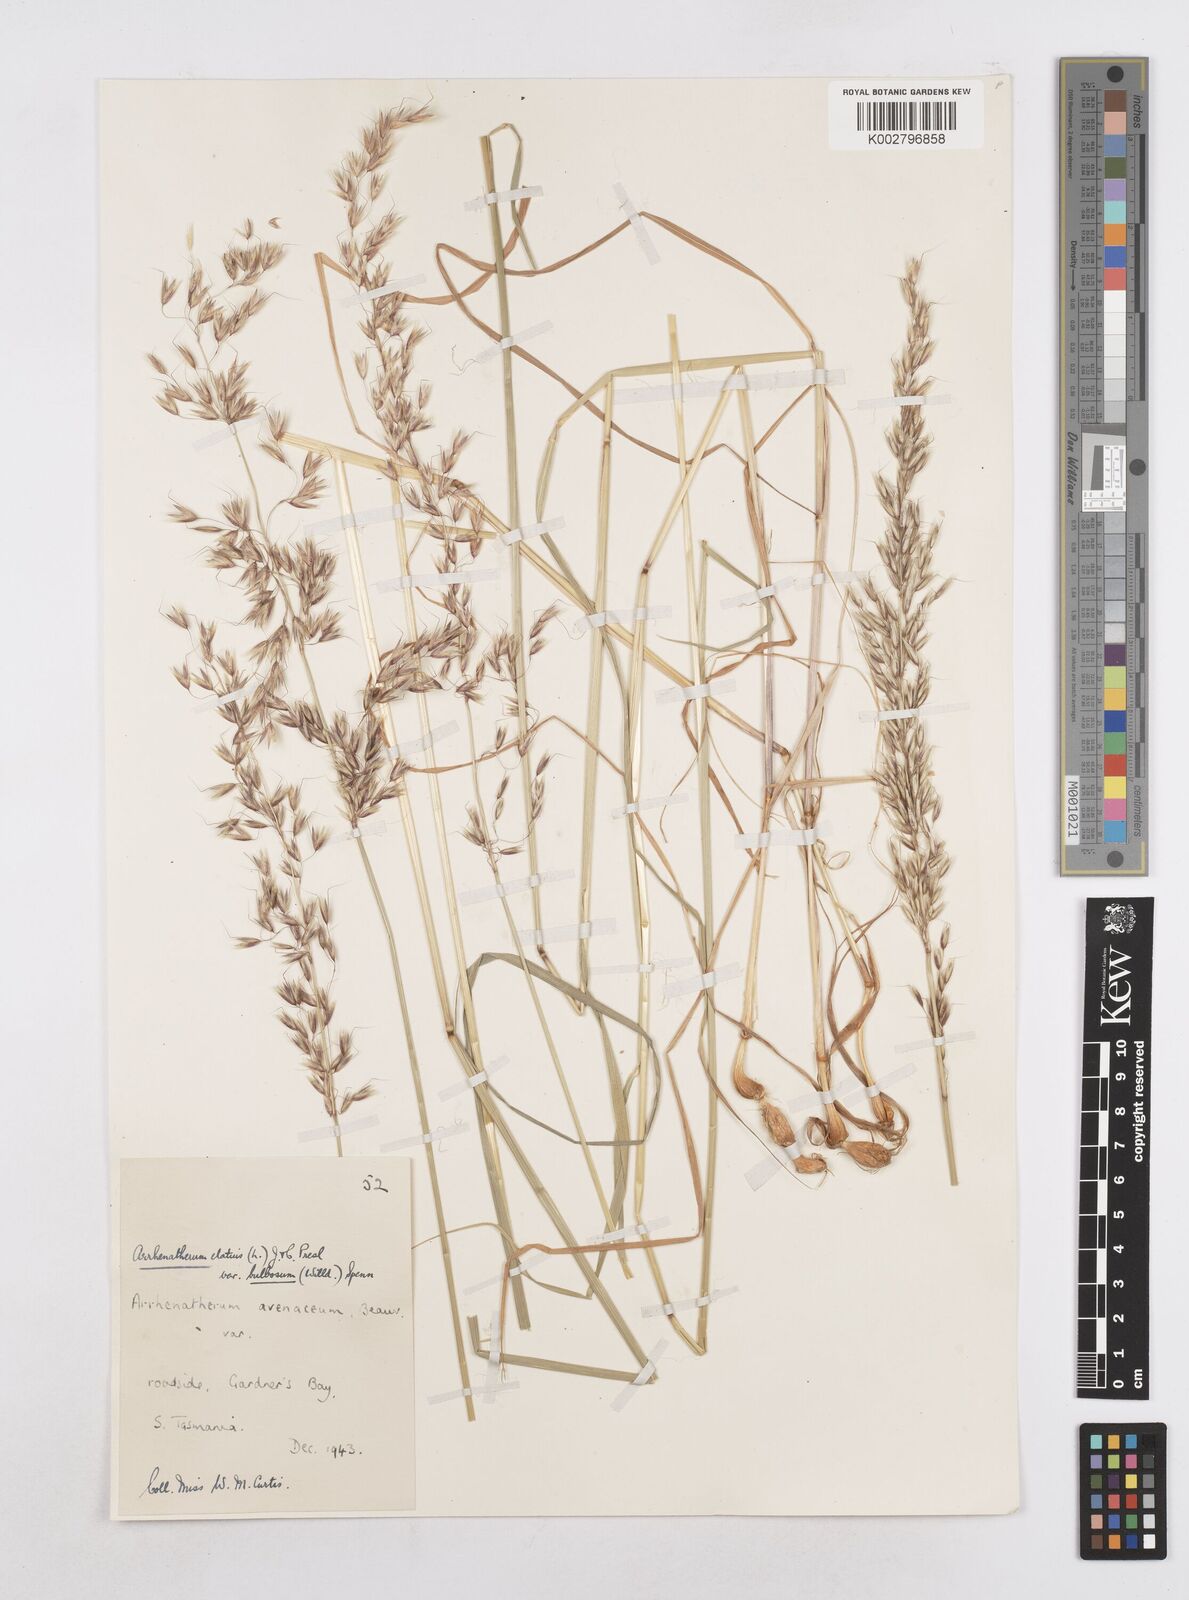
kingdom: Plantae
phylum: Tracheophyta
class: Liliopsida
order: Poales
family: Poaceae
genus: Arrhenatherum
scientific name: Arrhenatherum elatius
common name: Tall oatgrass
